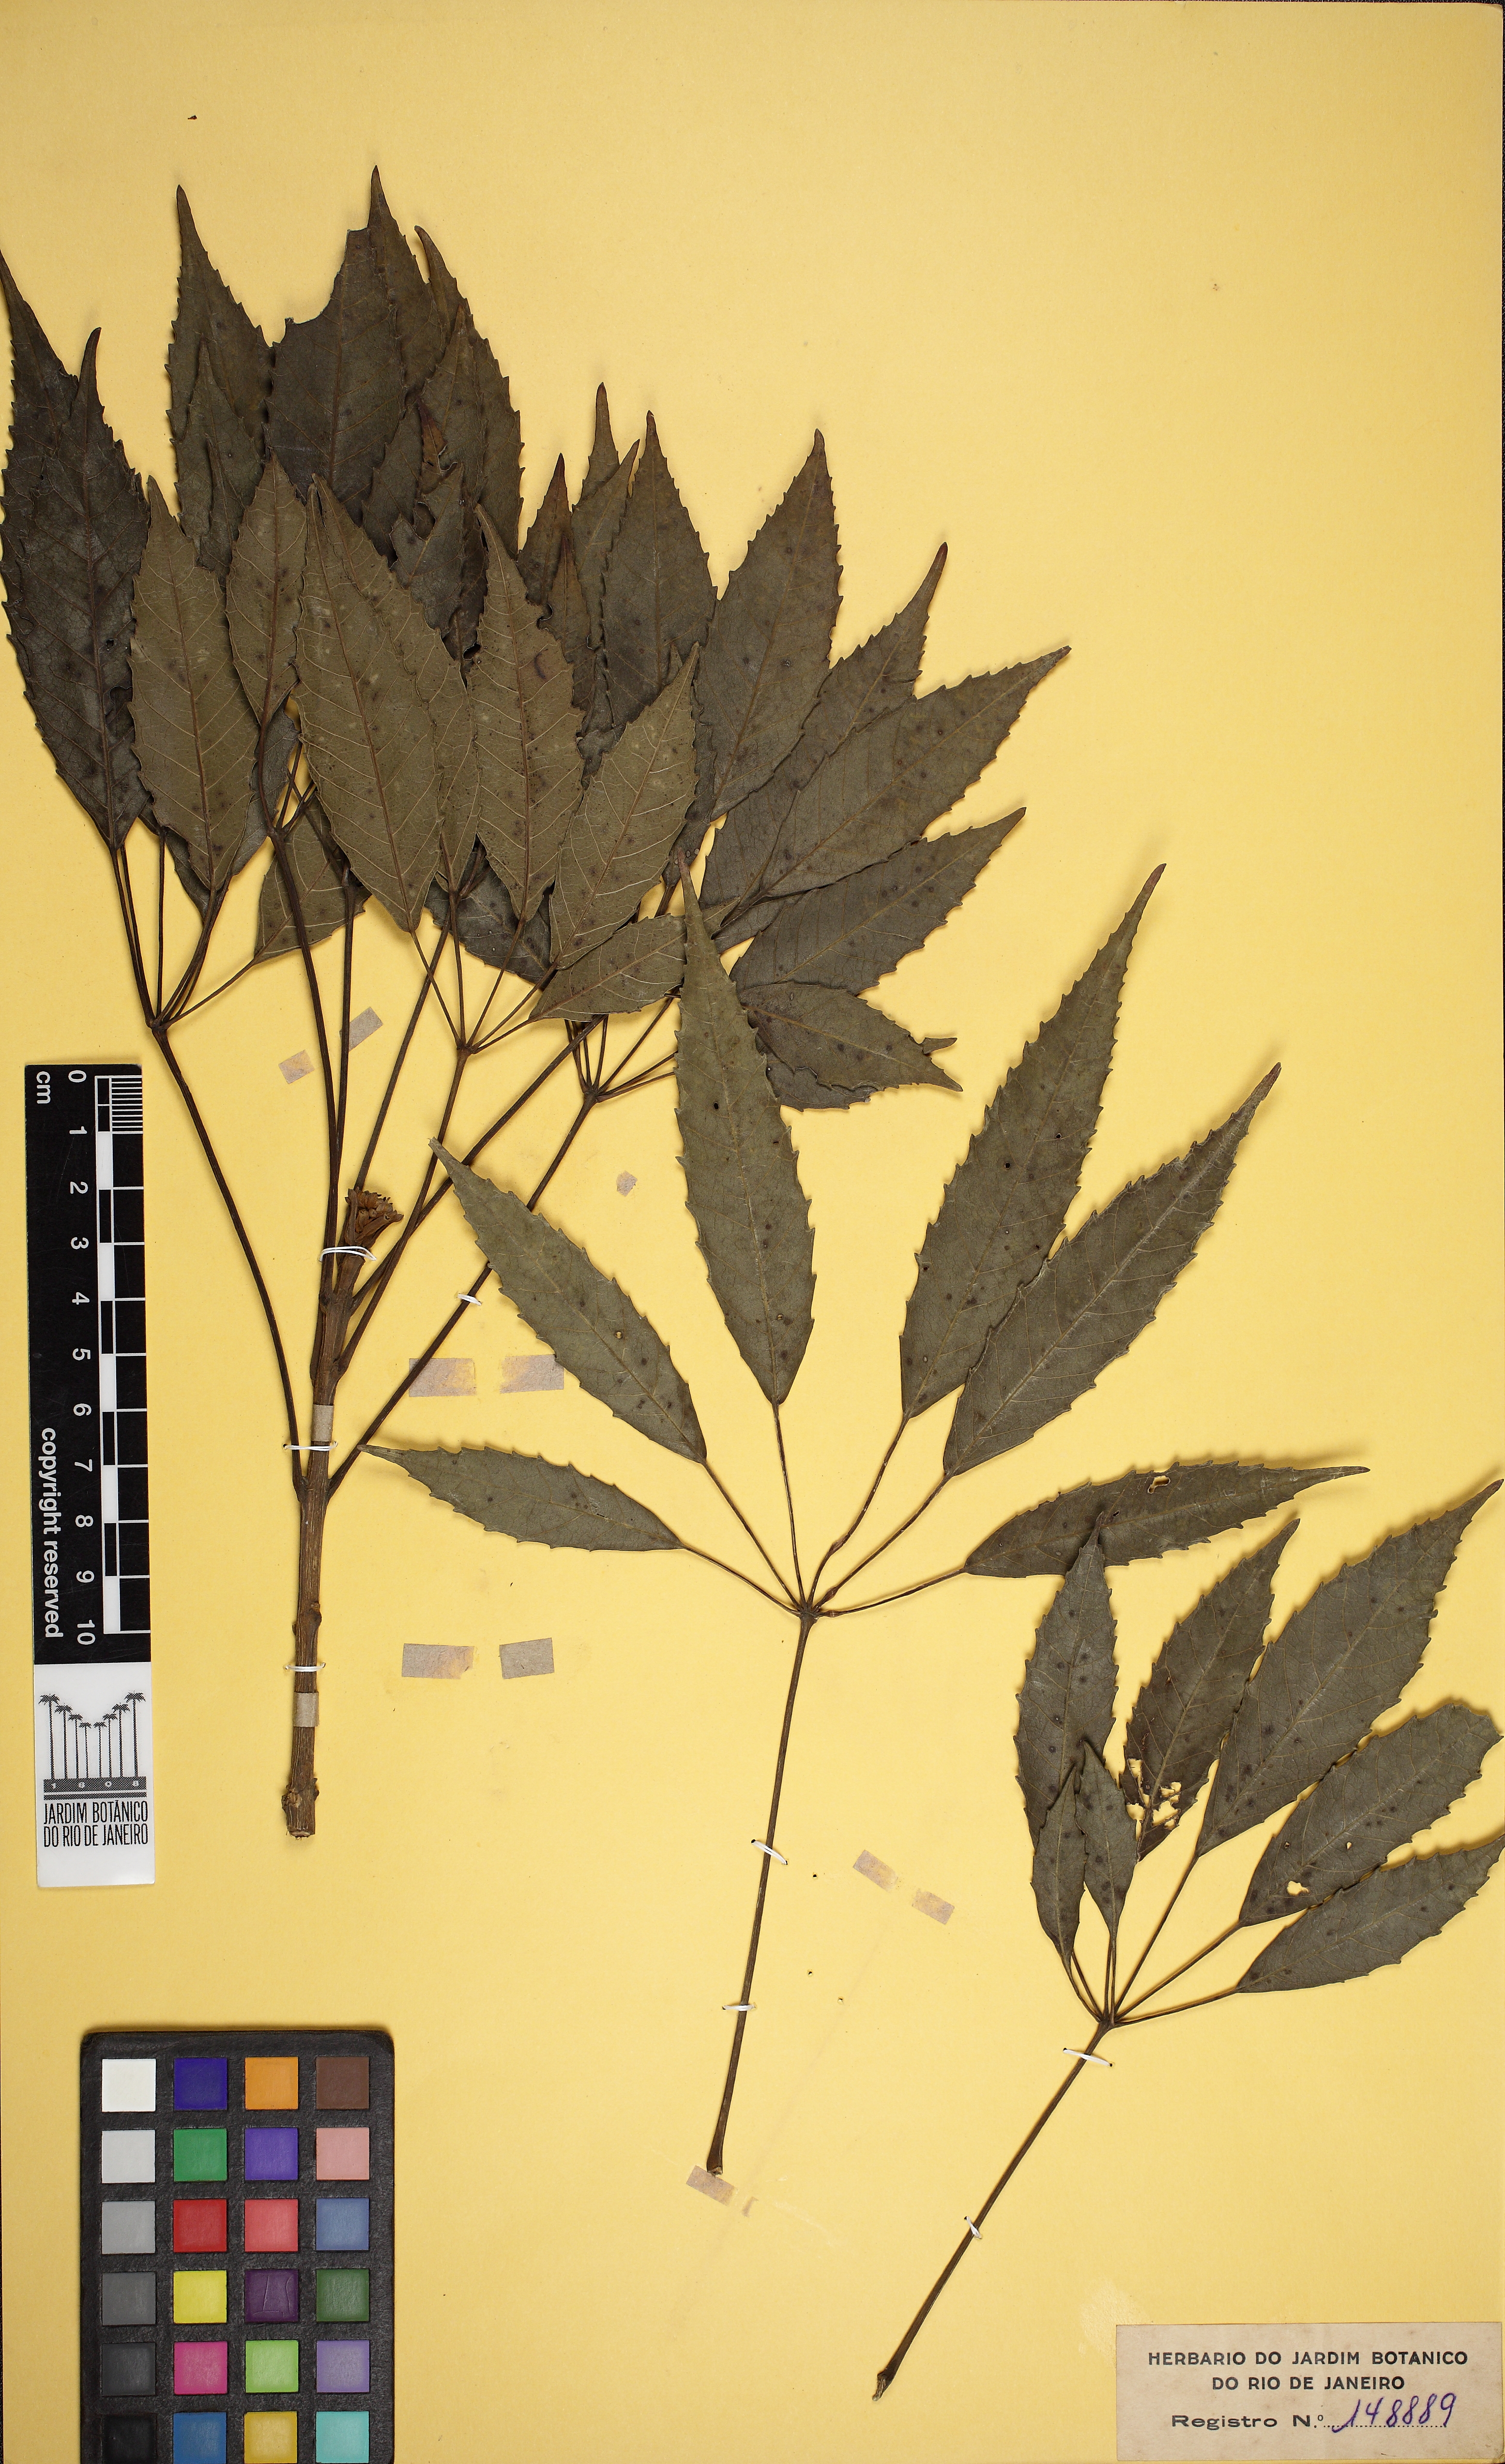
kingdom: Plantae
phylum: Tracheophyta
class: Magnoliopsida
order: Lamiales
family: Bignoniaceae
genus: Handroanthus
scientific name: Handroanthus bureavii
